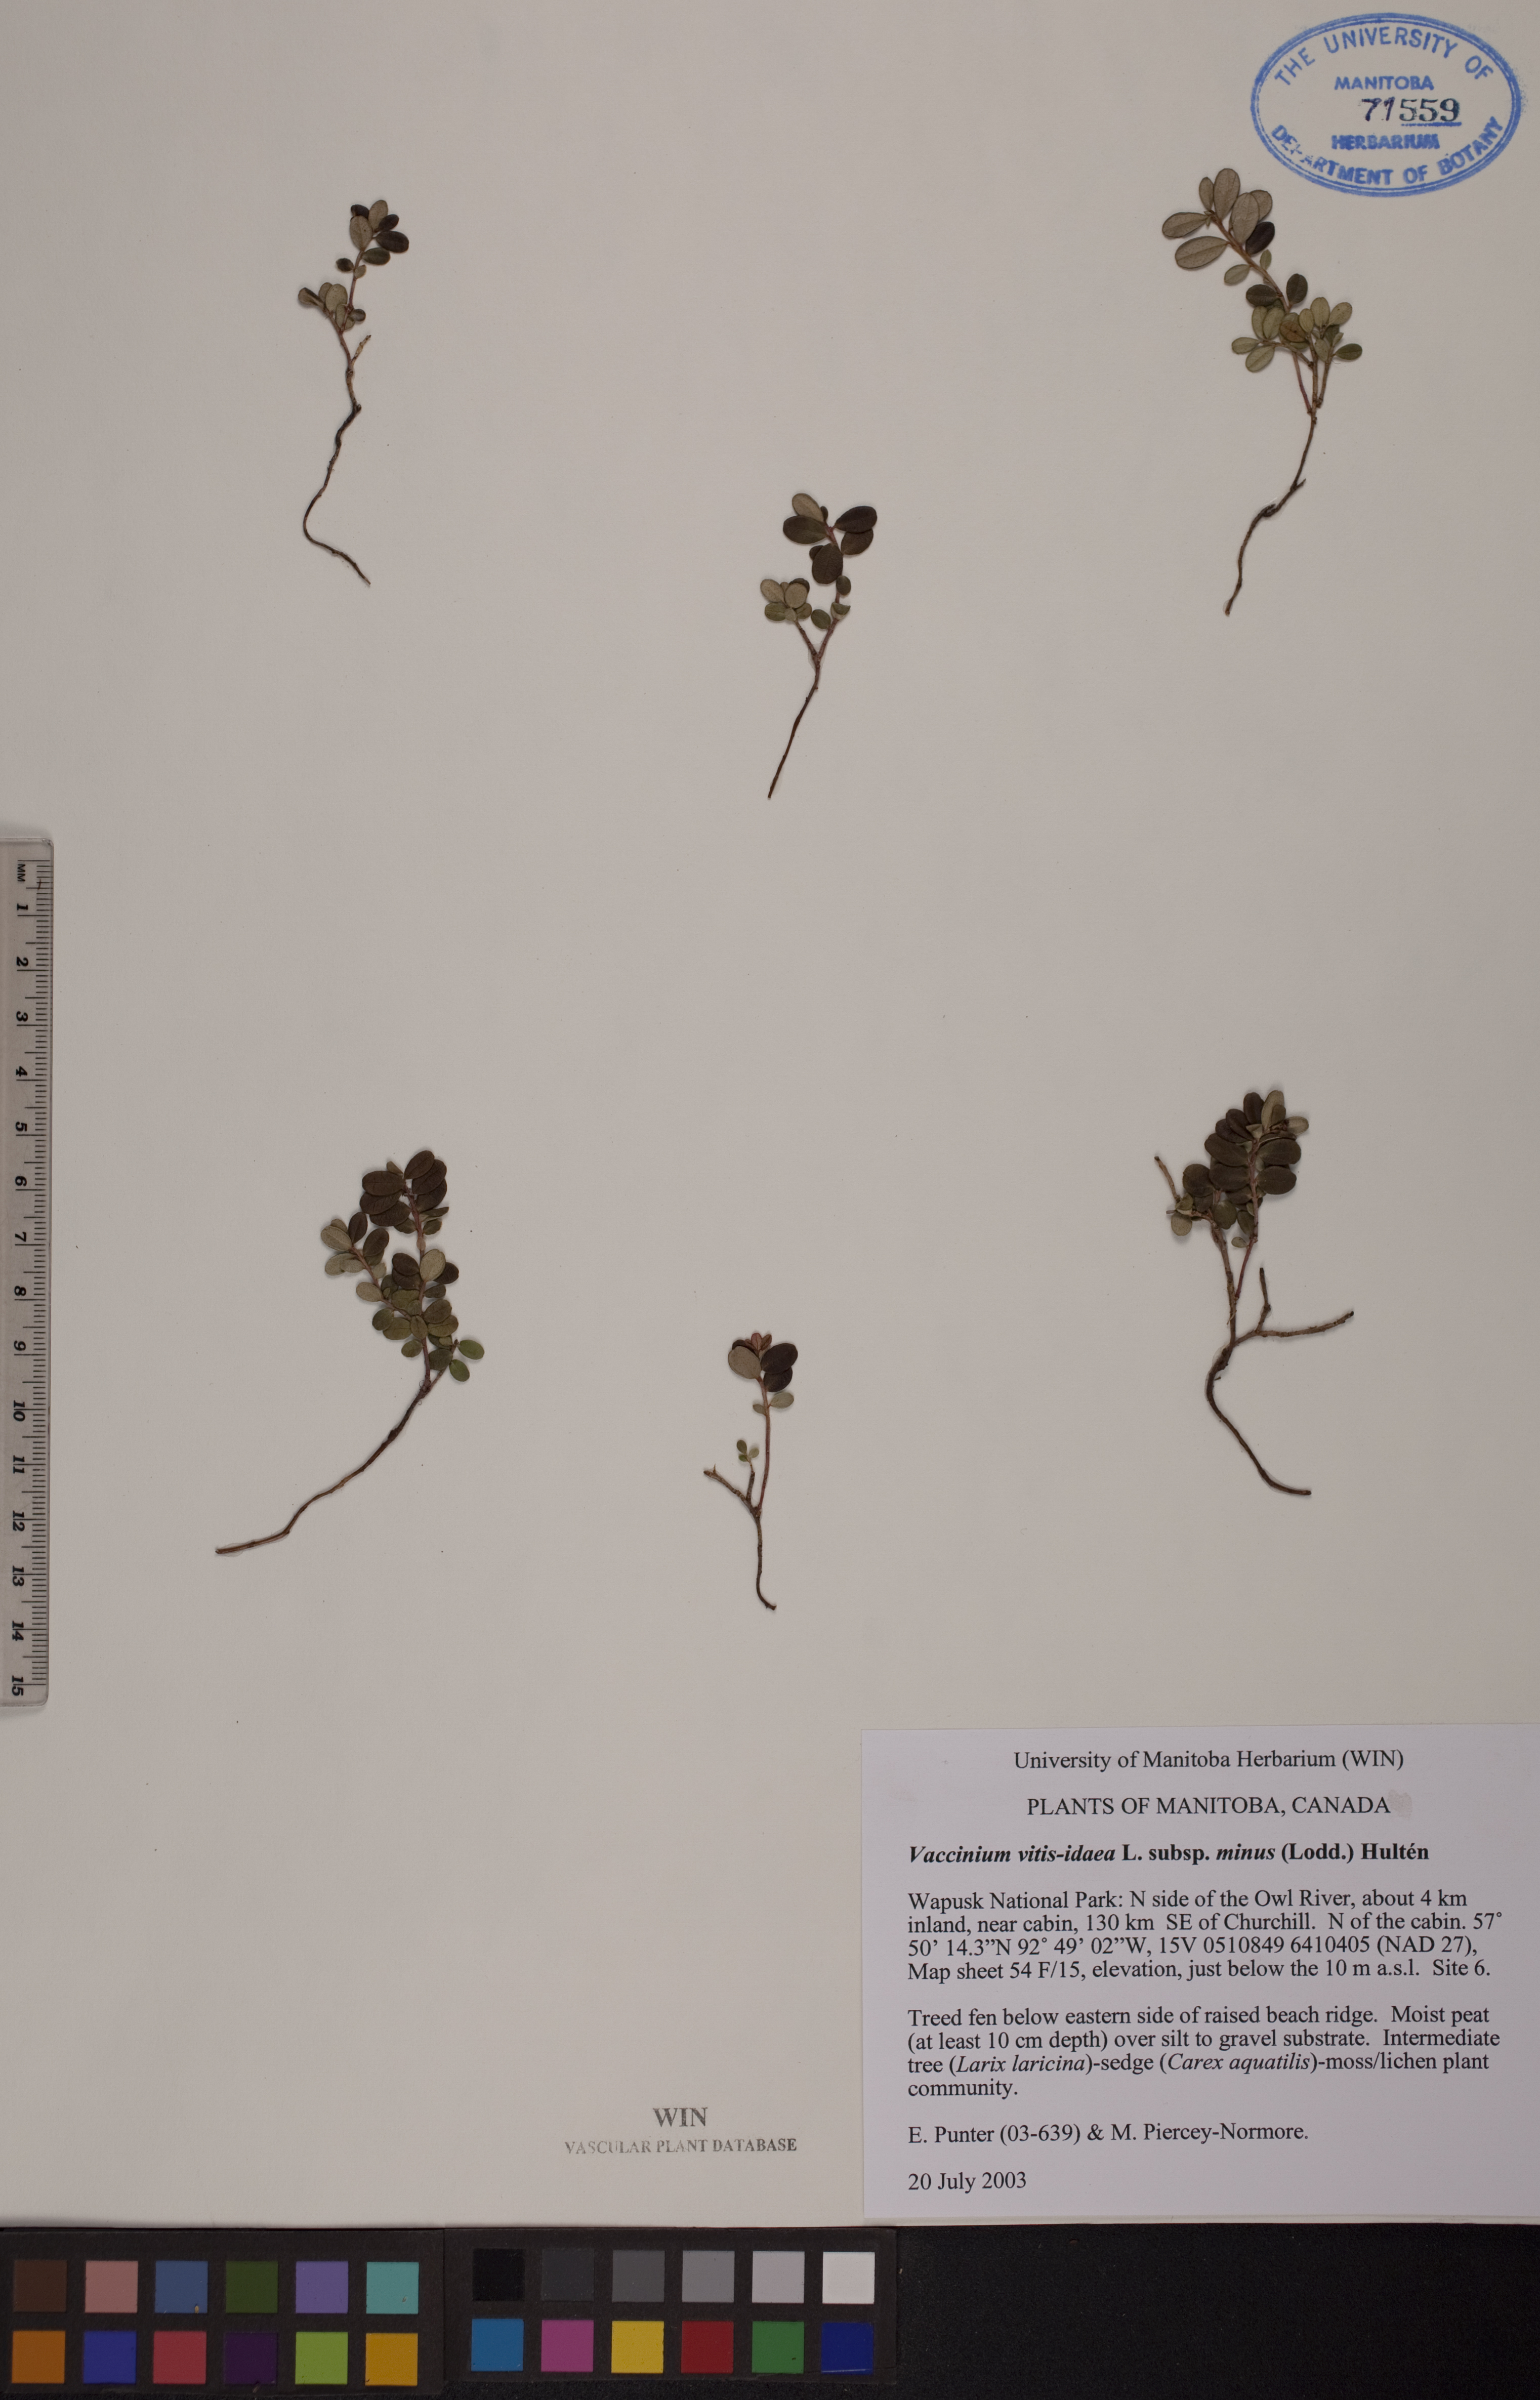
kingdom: Plantae
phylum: Tracheophyta
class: Magnoliopsida
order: Ericales
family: Ericaceae
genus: Vaccinium
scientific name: Vaccinium vitis-idaea
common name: Cowberry
